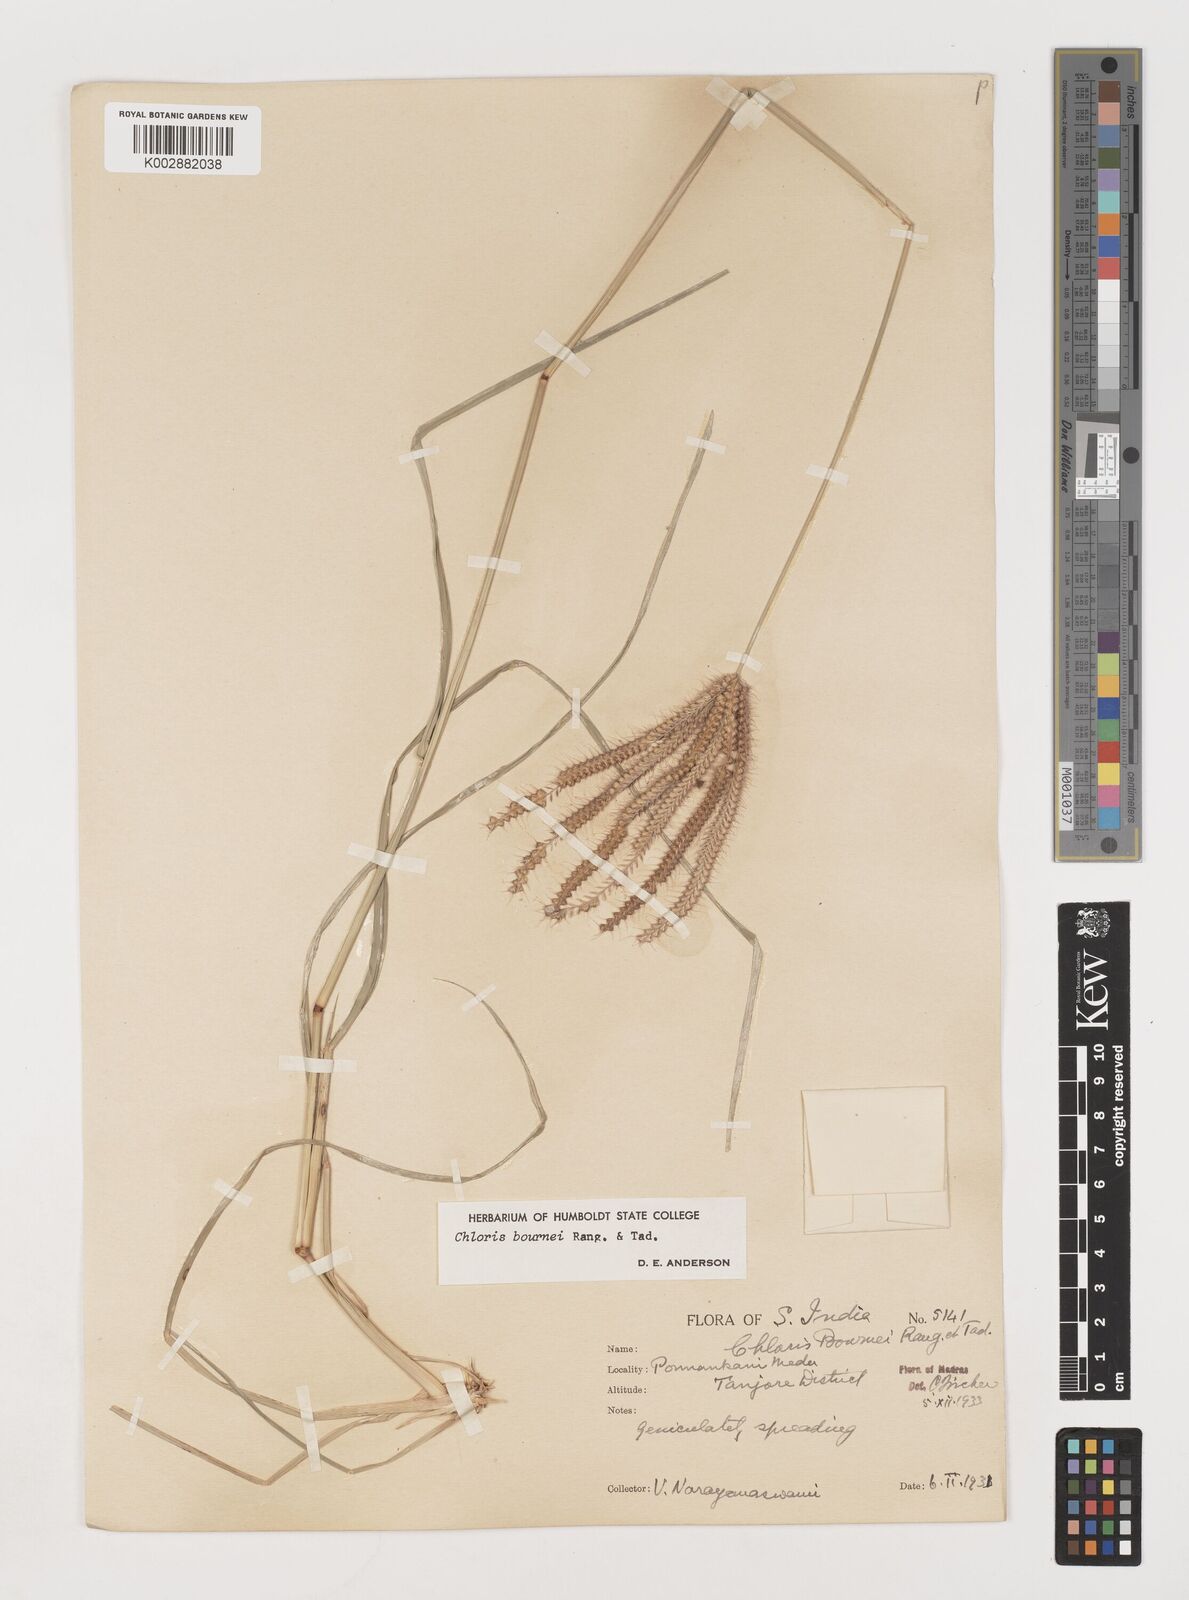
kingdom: Plantae
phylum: Tracheophyta
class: Liliopsida
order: Poales
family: Poaceae
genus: Chloris
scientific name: Chloris bournei
